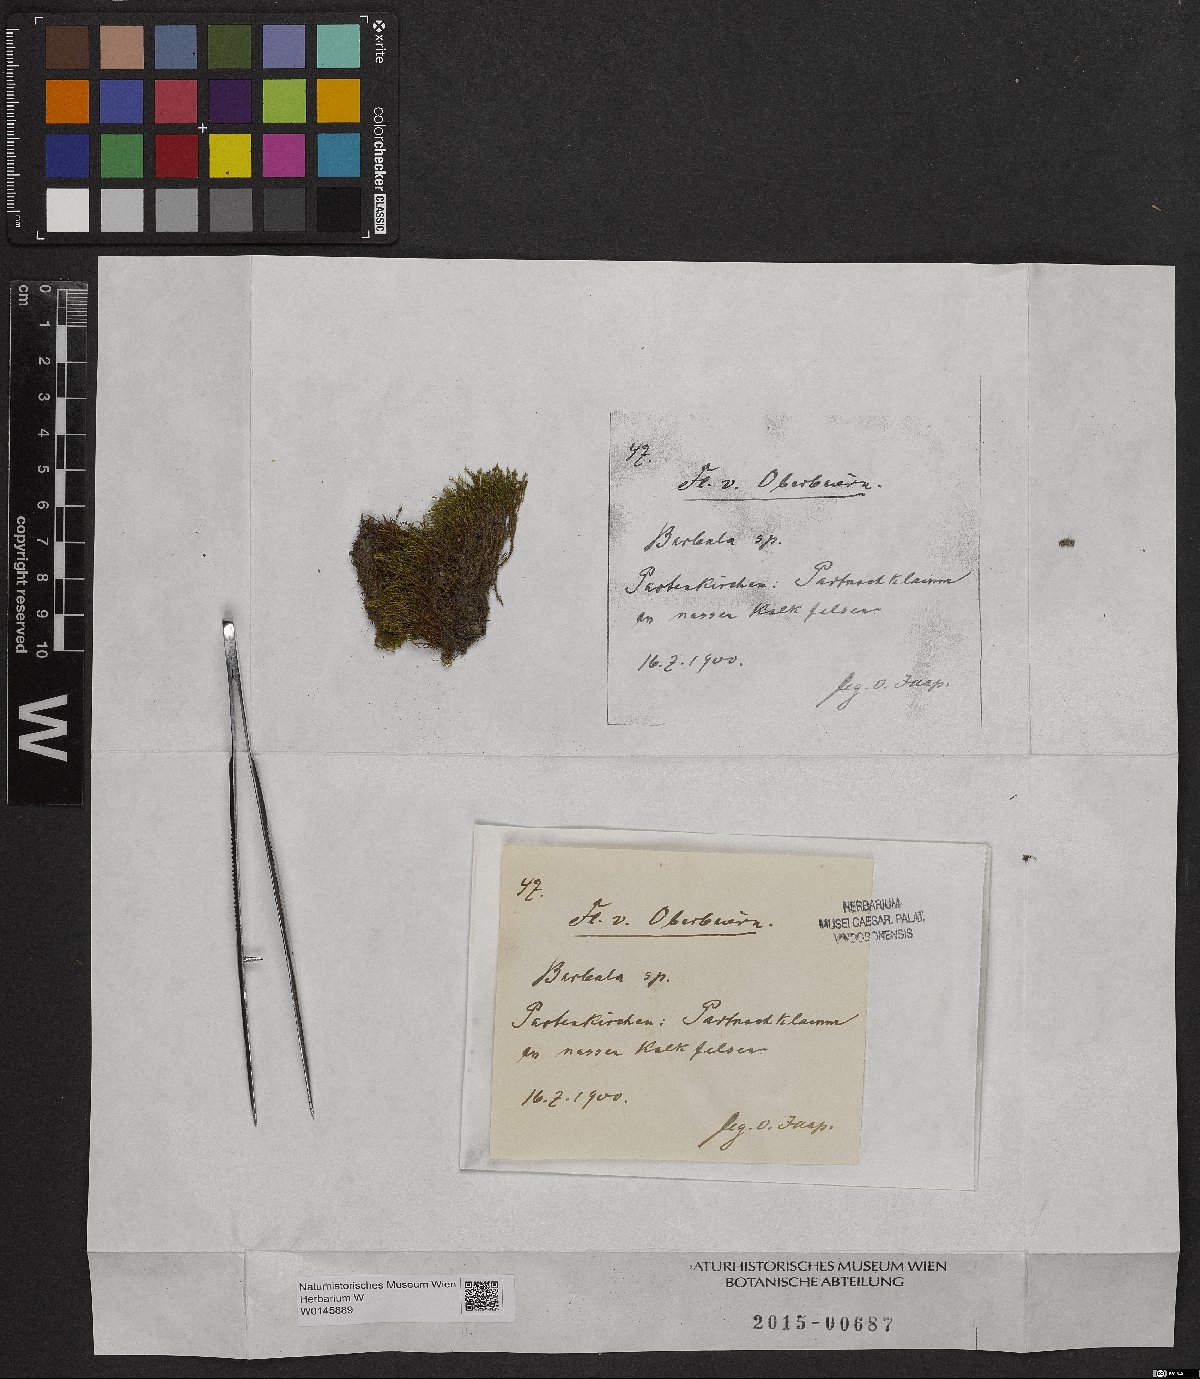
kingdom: Plantae
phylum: Bryophyta
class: Bryopsida
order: Pottiales
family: Pottiaceae
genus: Barbula
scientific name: Barbula
